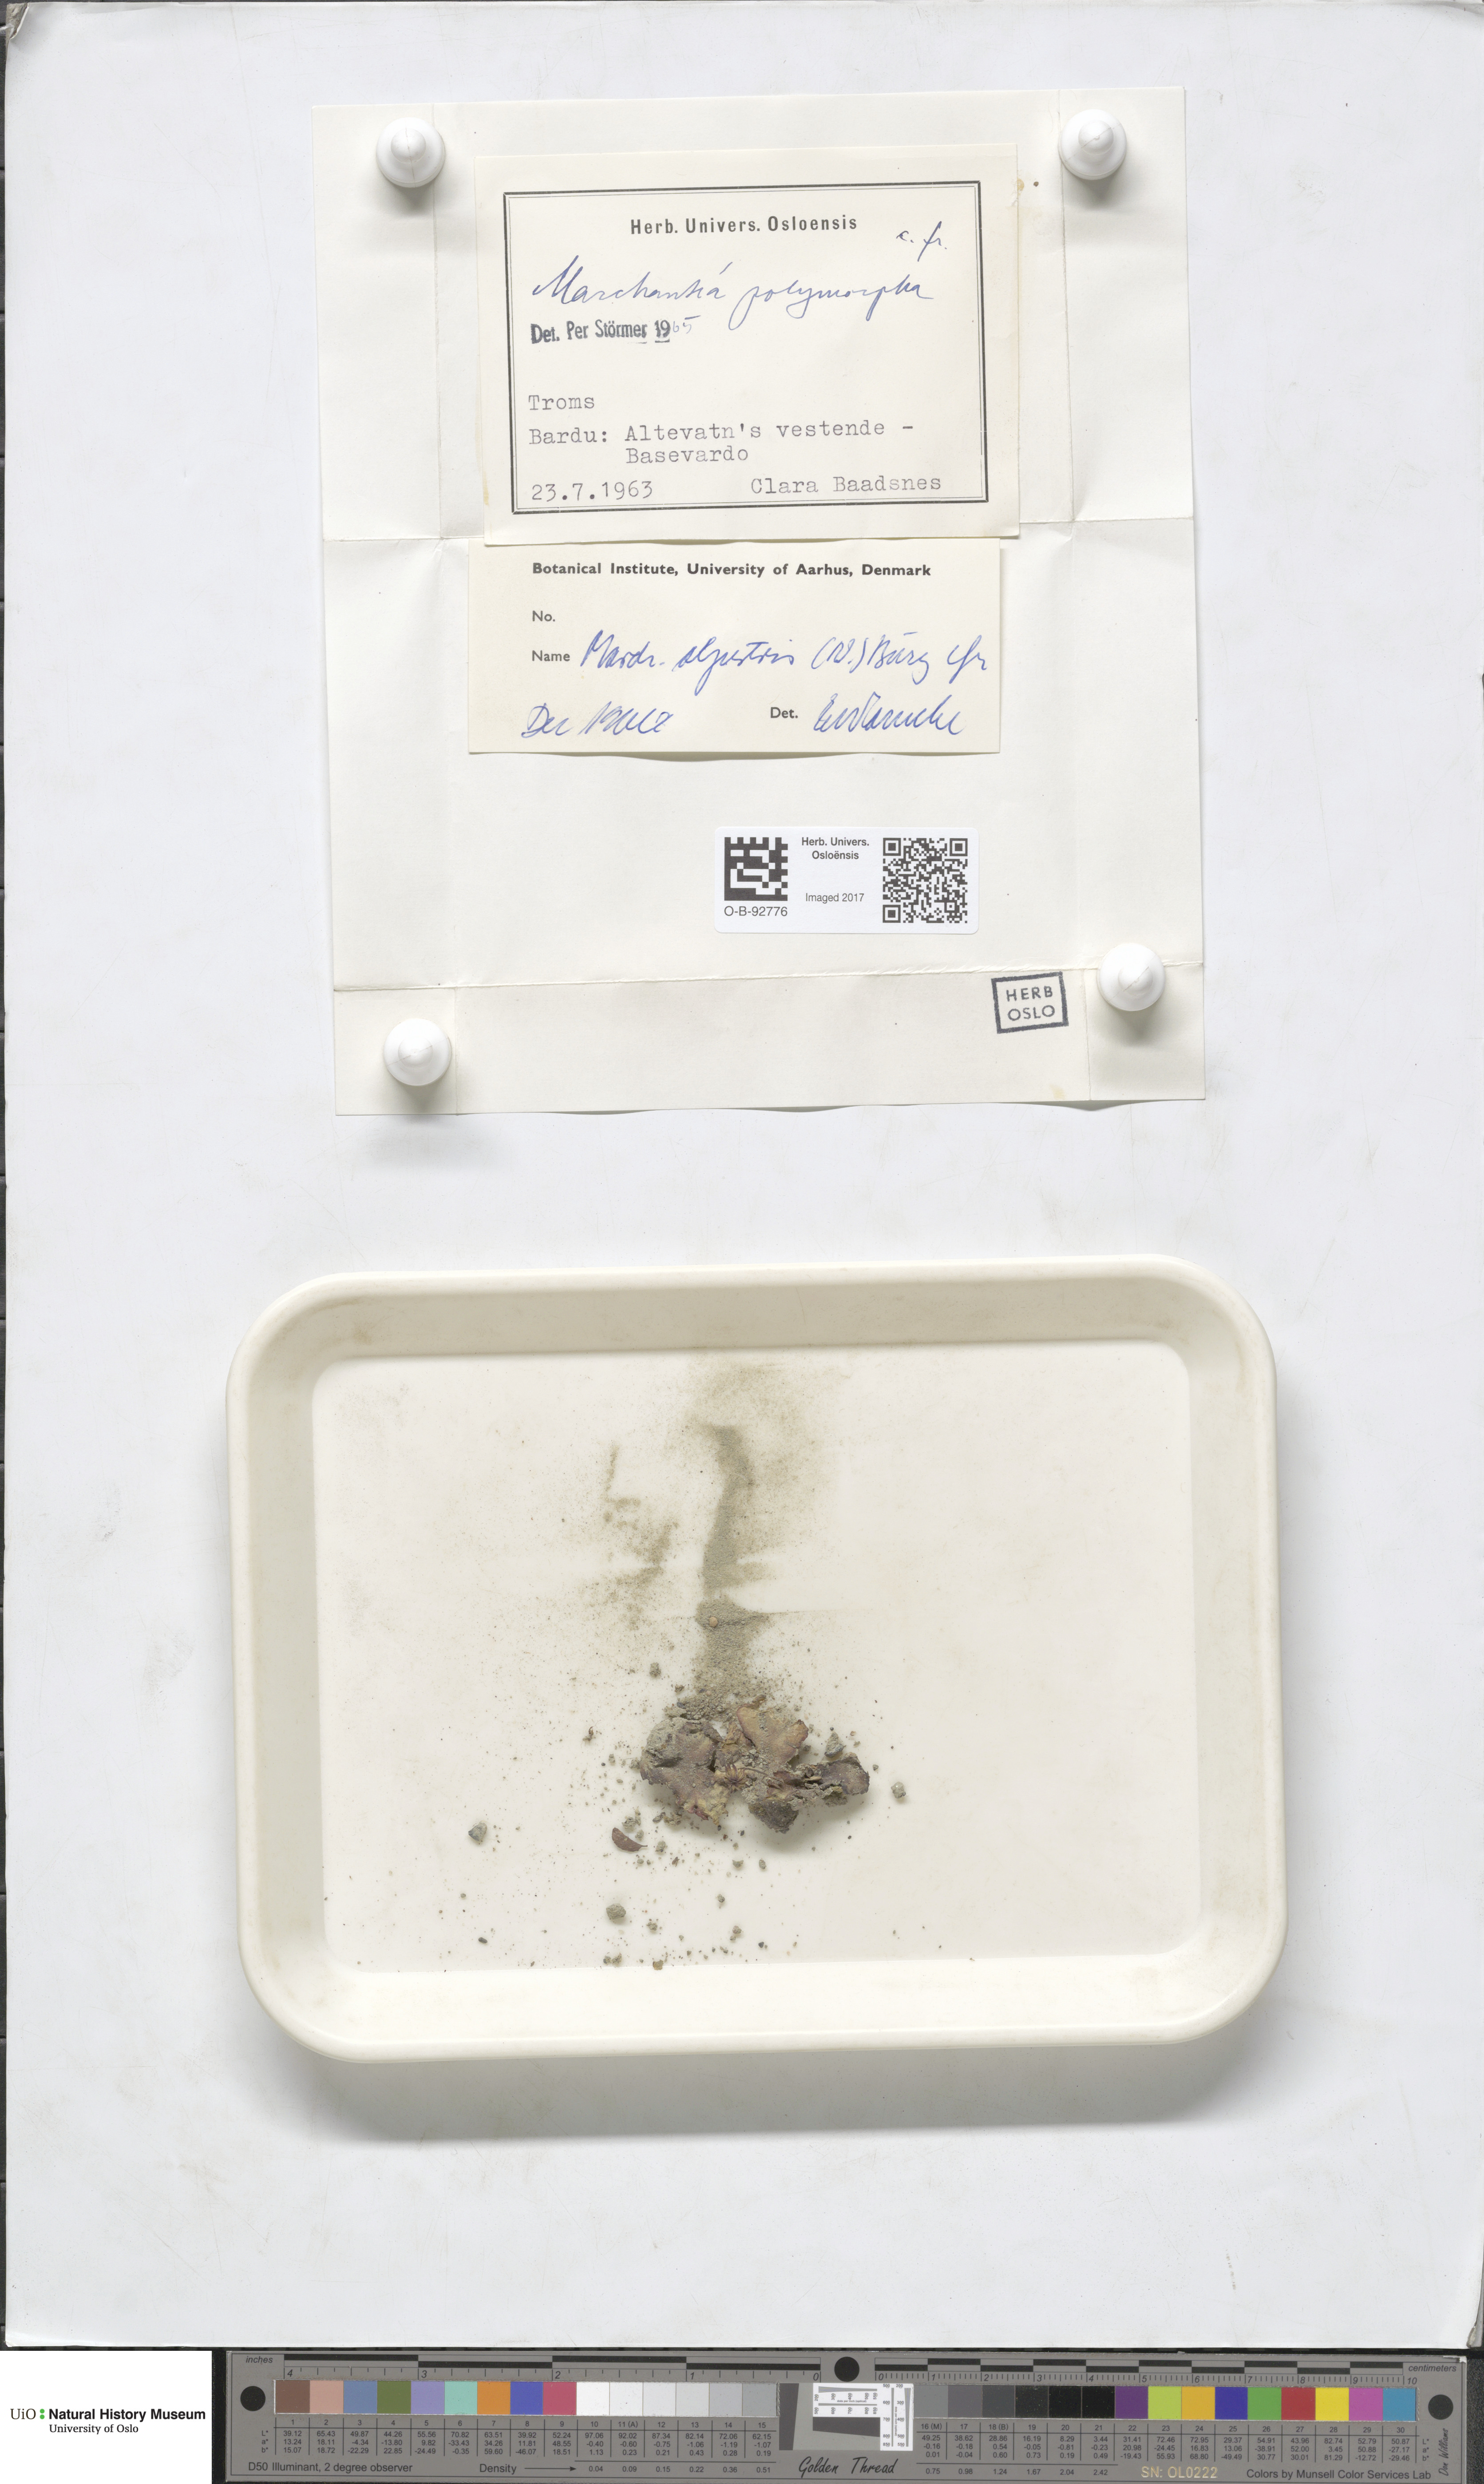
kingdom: Plantae
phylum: Marchantiophyta
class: Marchantiopsida
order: Marchantiales
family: Marchantiaceae
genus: Marchantia
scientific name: Marchantia polymorpha
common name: Common liverwort
